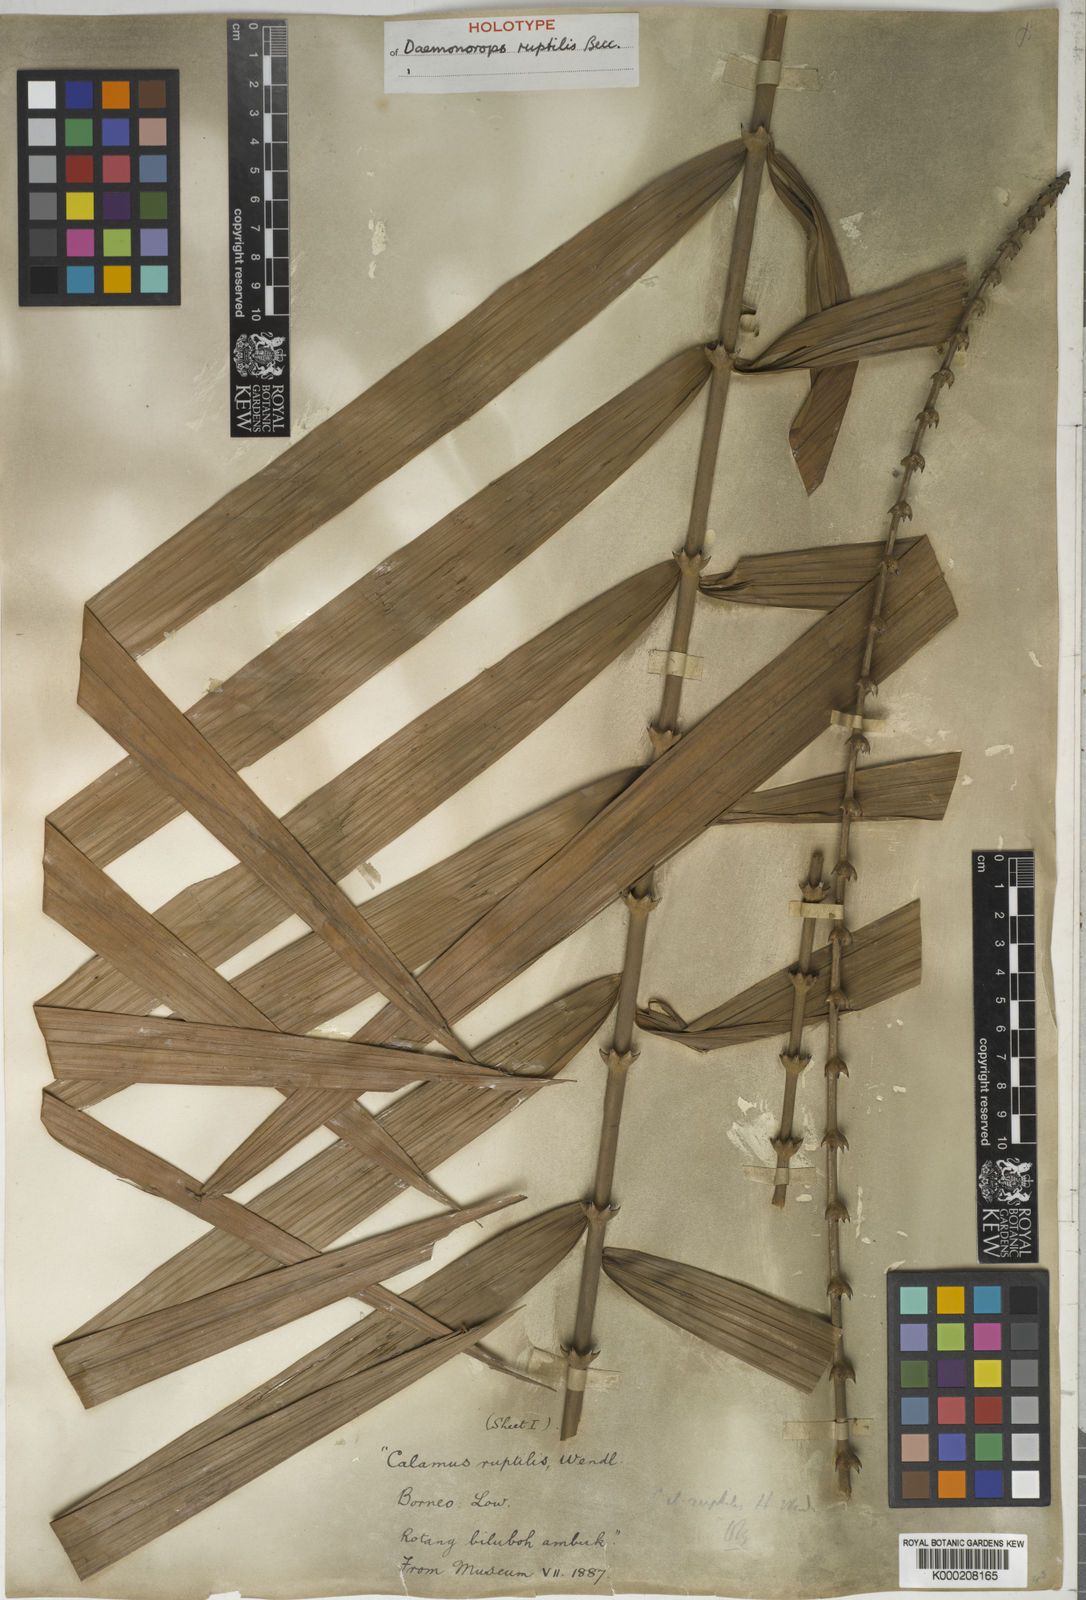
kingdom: Plantae
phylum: Tracheophyta
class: Liliopsida
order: Arecales
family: Arecaceae
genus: Calamus
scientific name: Calamus ruptilis
